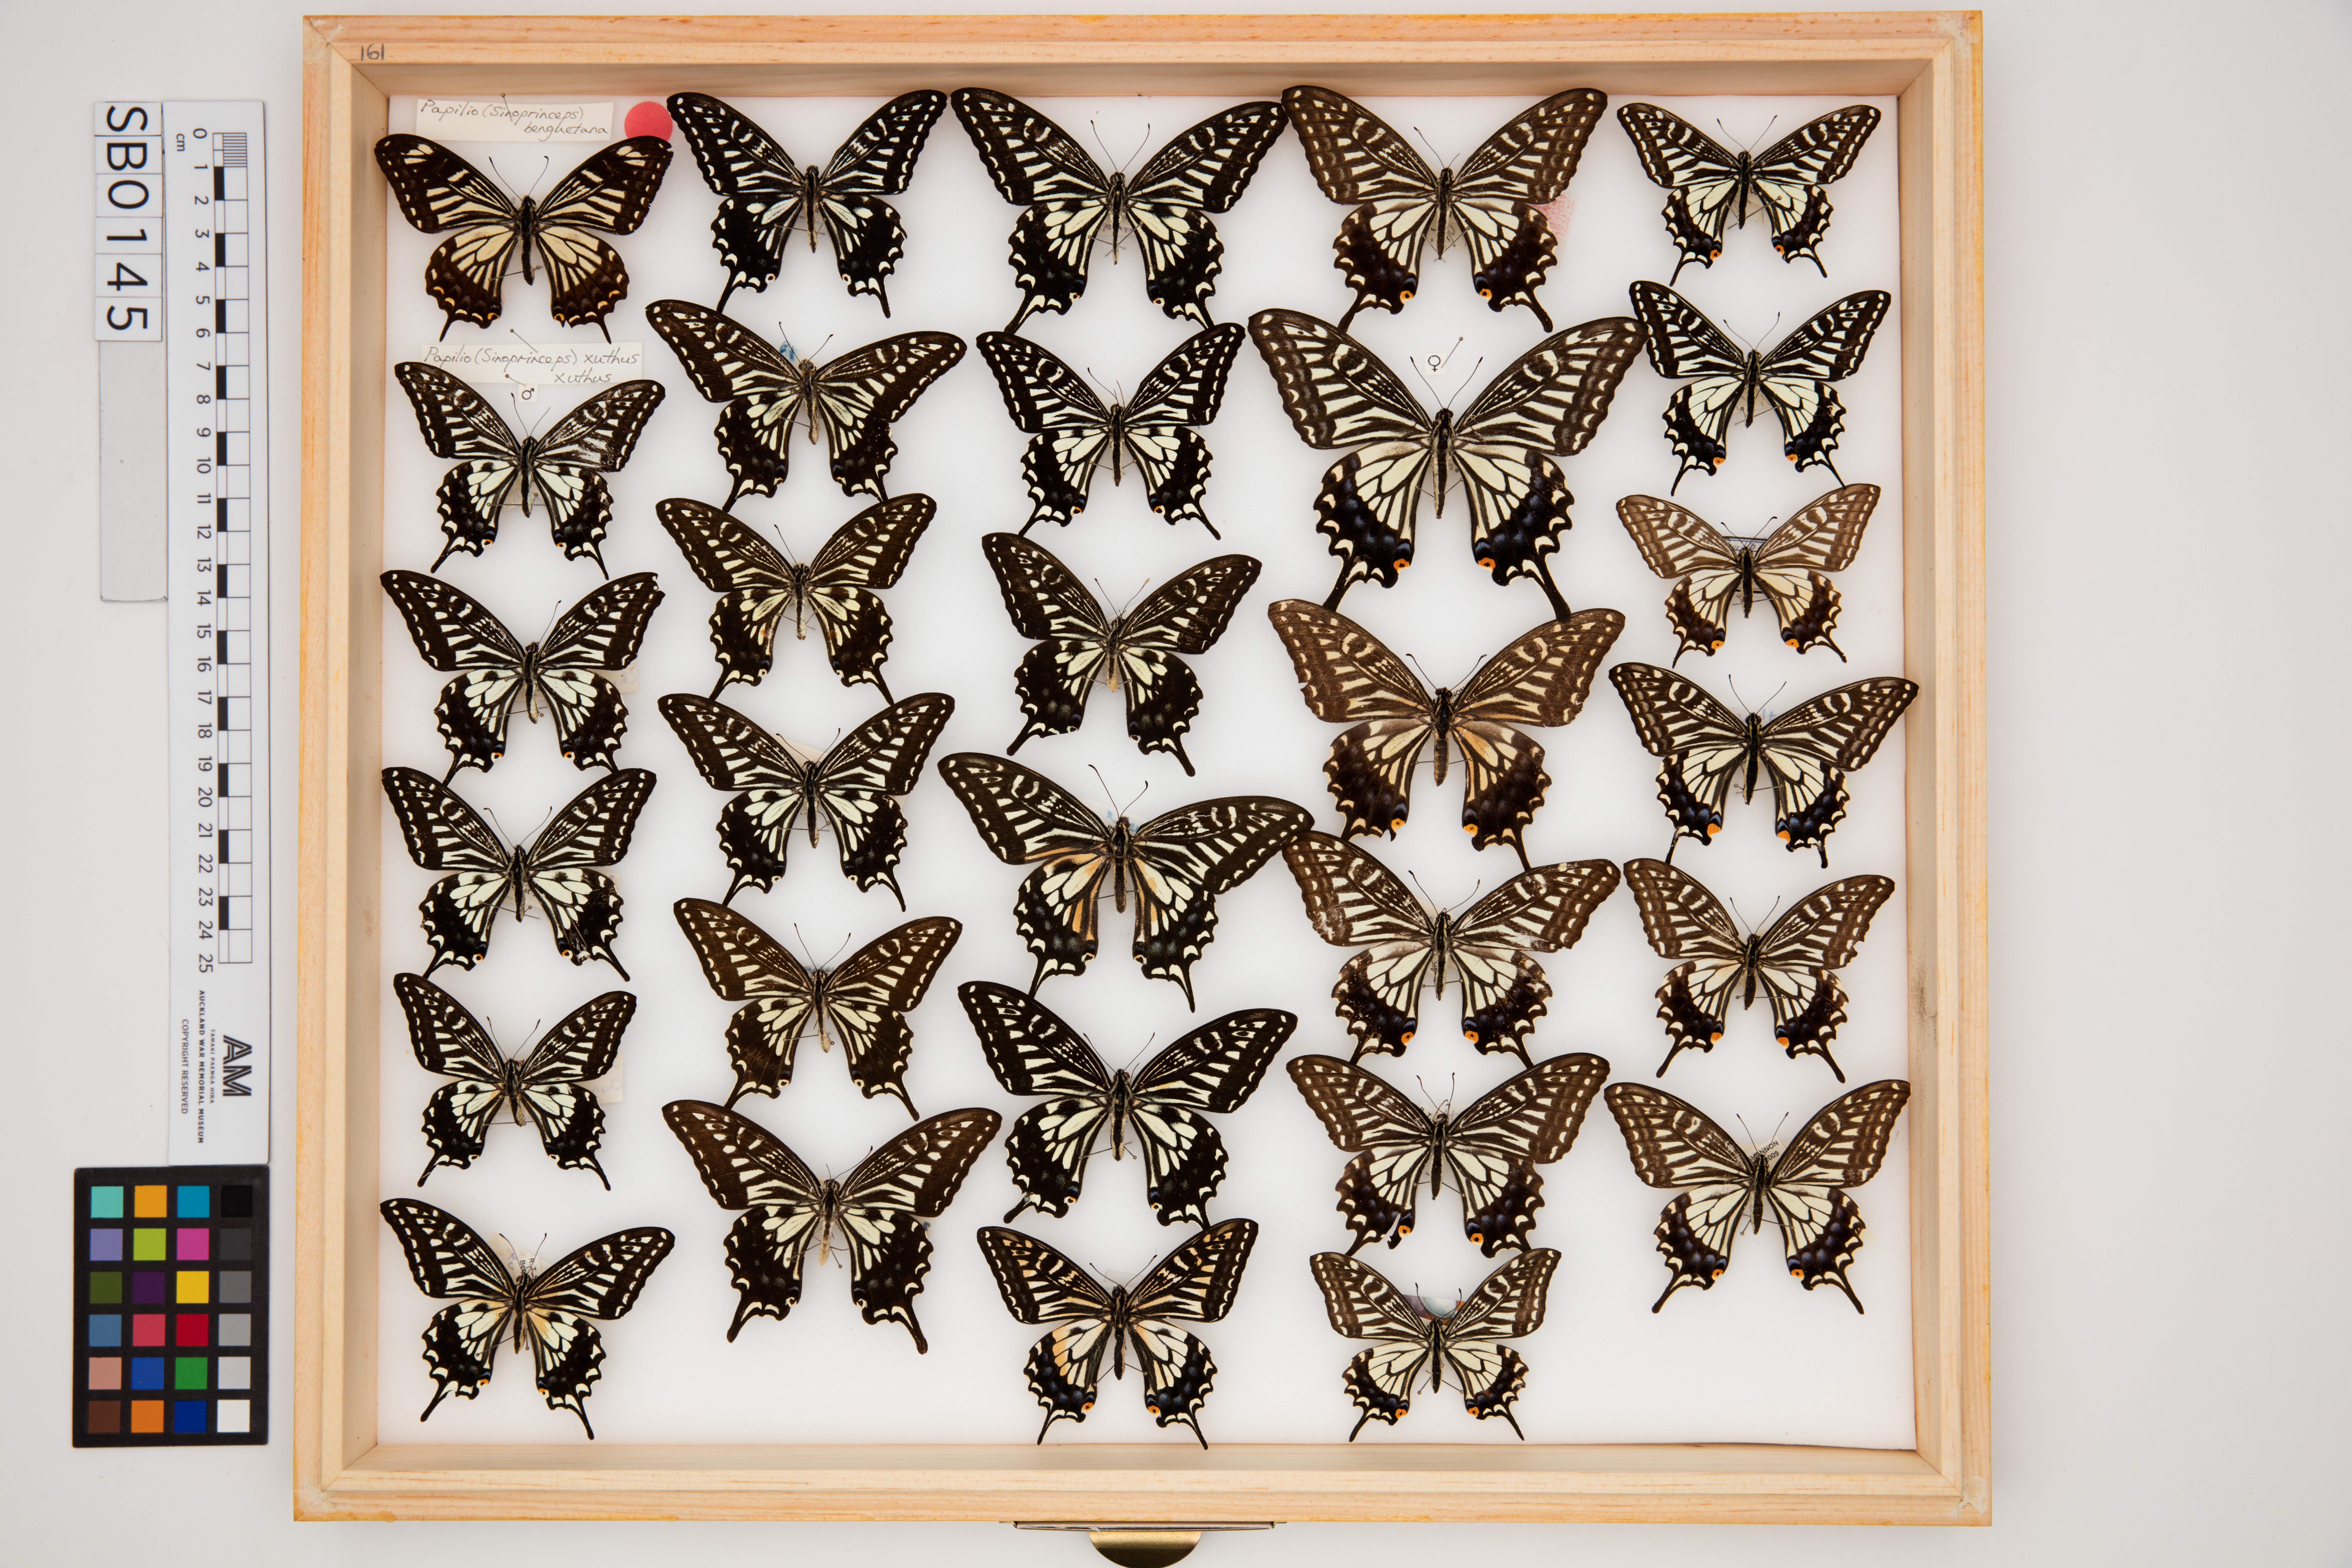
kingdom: Animalia
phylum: Arthropoda
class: Insecta
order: Lepidoptera
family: Papilionidae
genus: Papilio
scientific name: Papilio xuthus
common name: Asian swallowtail
